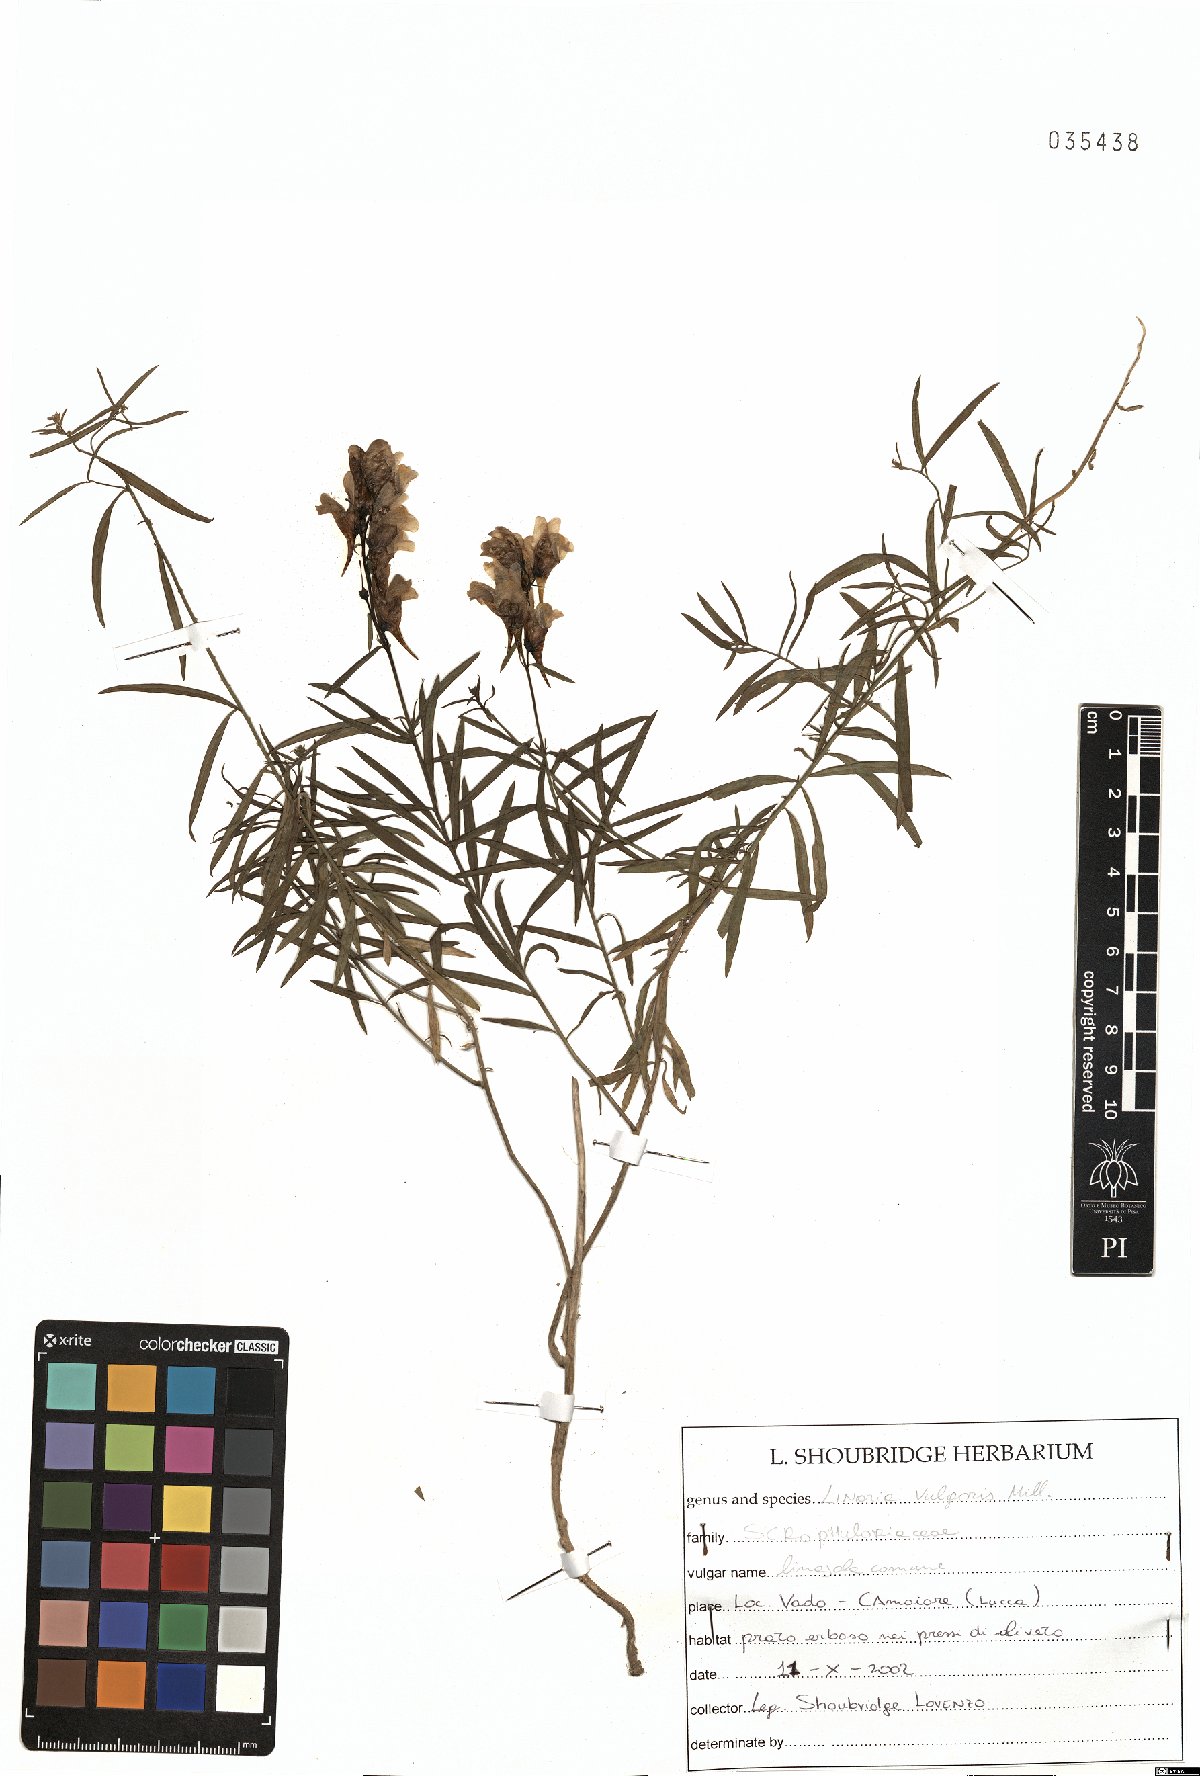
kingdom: Plantae
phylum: Tracheophyta
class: Magnoliopsida
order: Lamiales
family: Plantaginaceae
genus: Linaria
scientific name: Linaria vulgaris
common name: Butter and eggs
